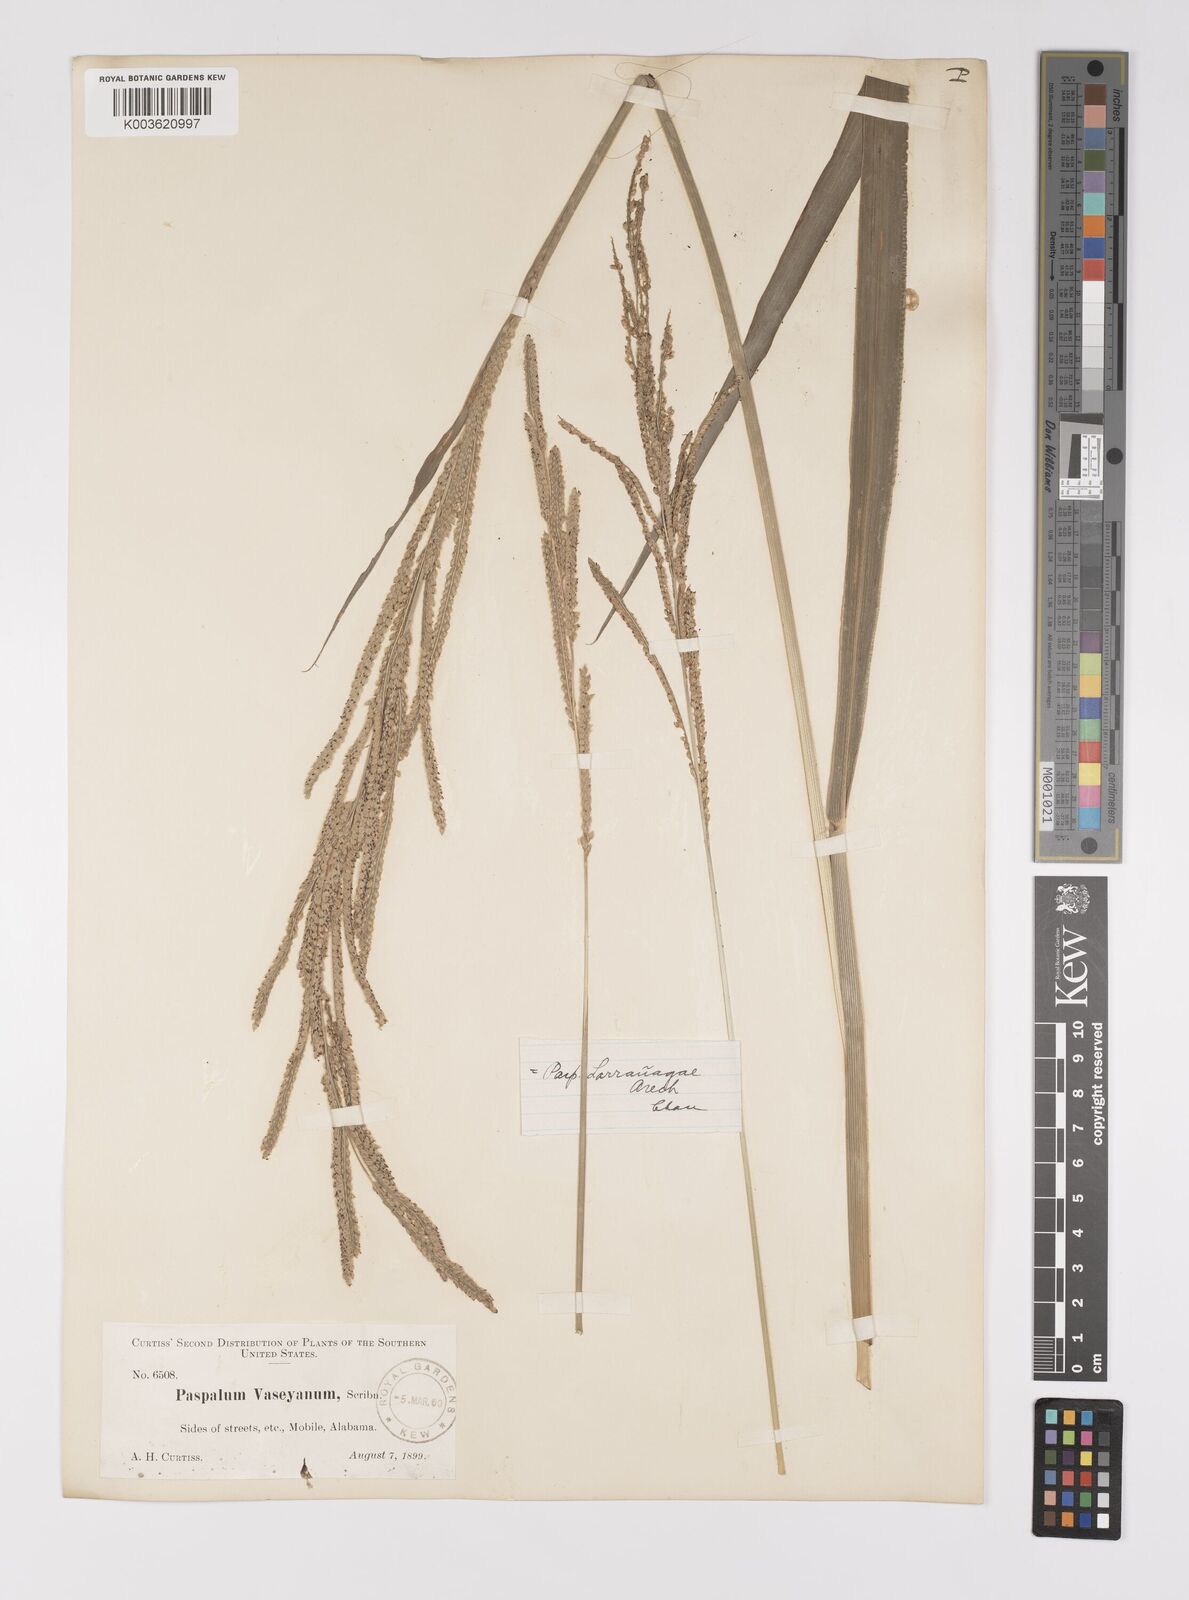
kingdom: Plantae
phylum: Tracheophyta
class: Liliopsida
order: Poales
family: Poaceae
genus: Paspalum
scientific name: Paspalum urvillei
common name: Vasey's grass
